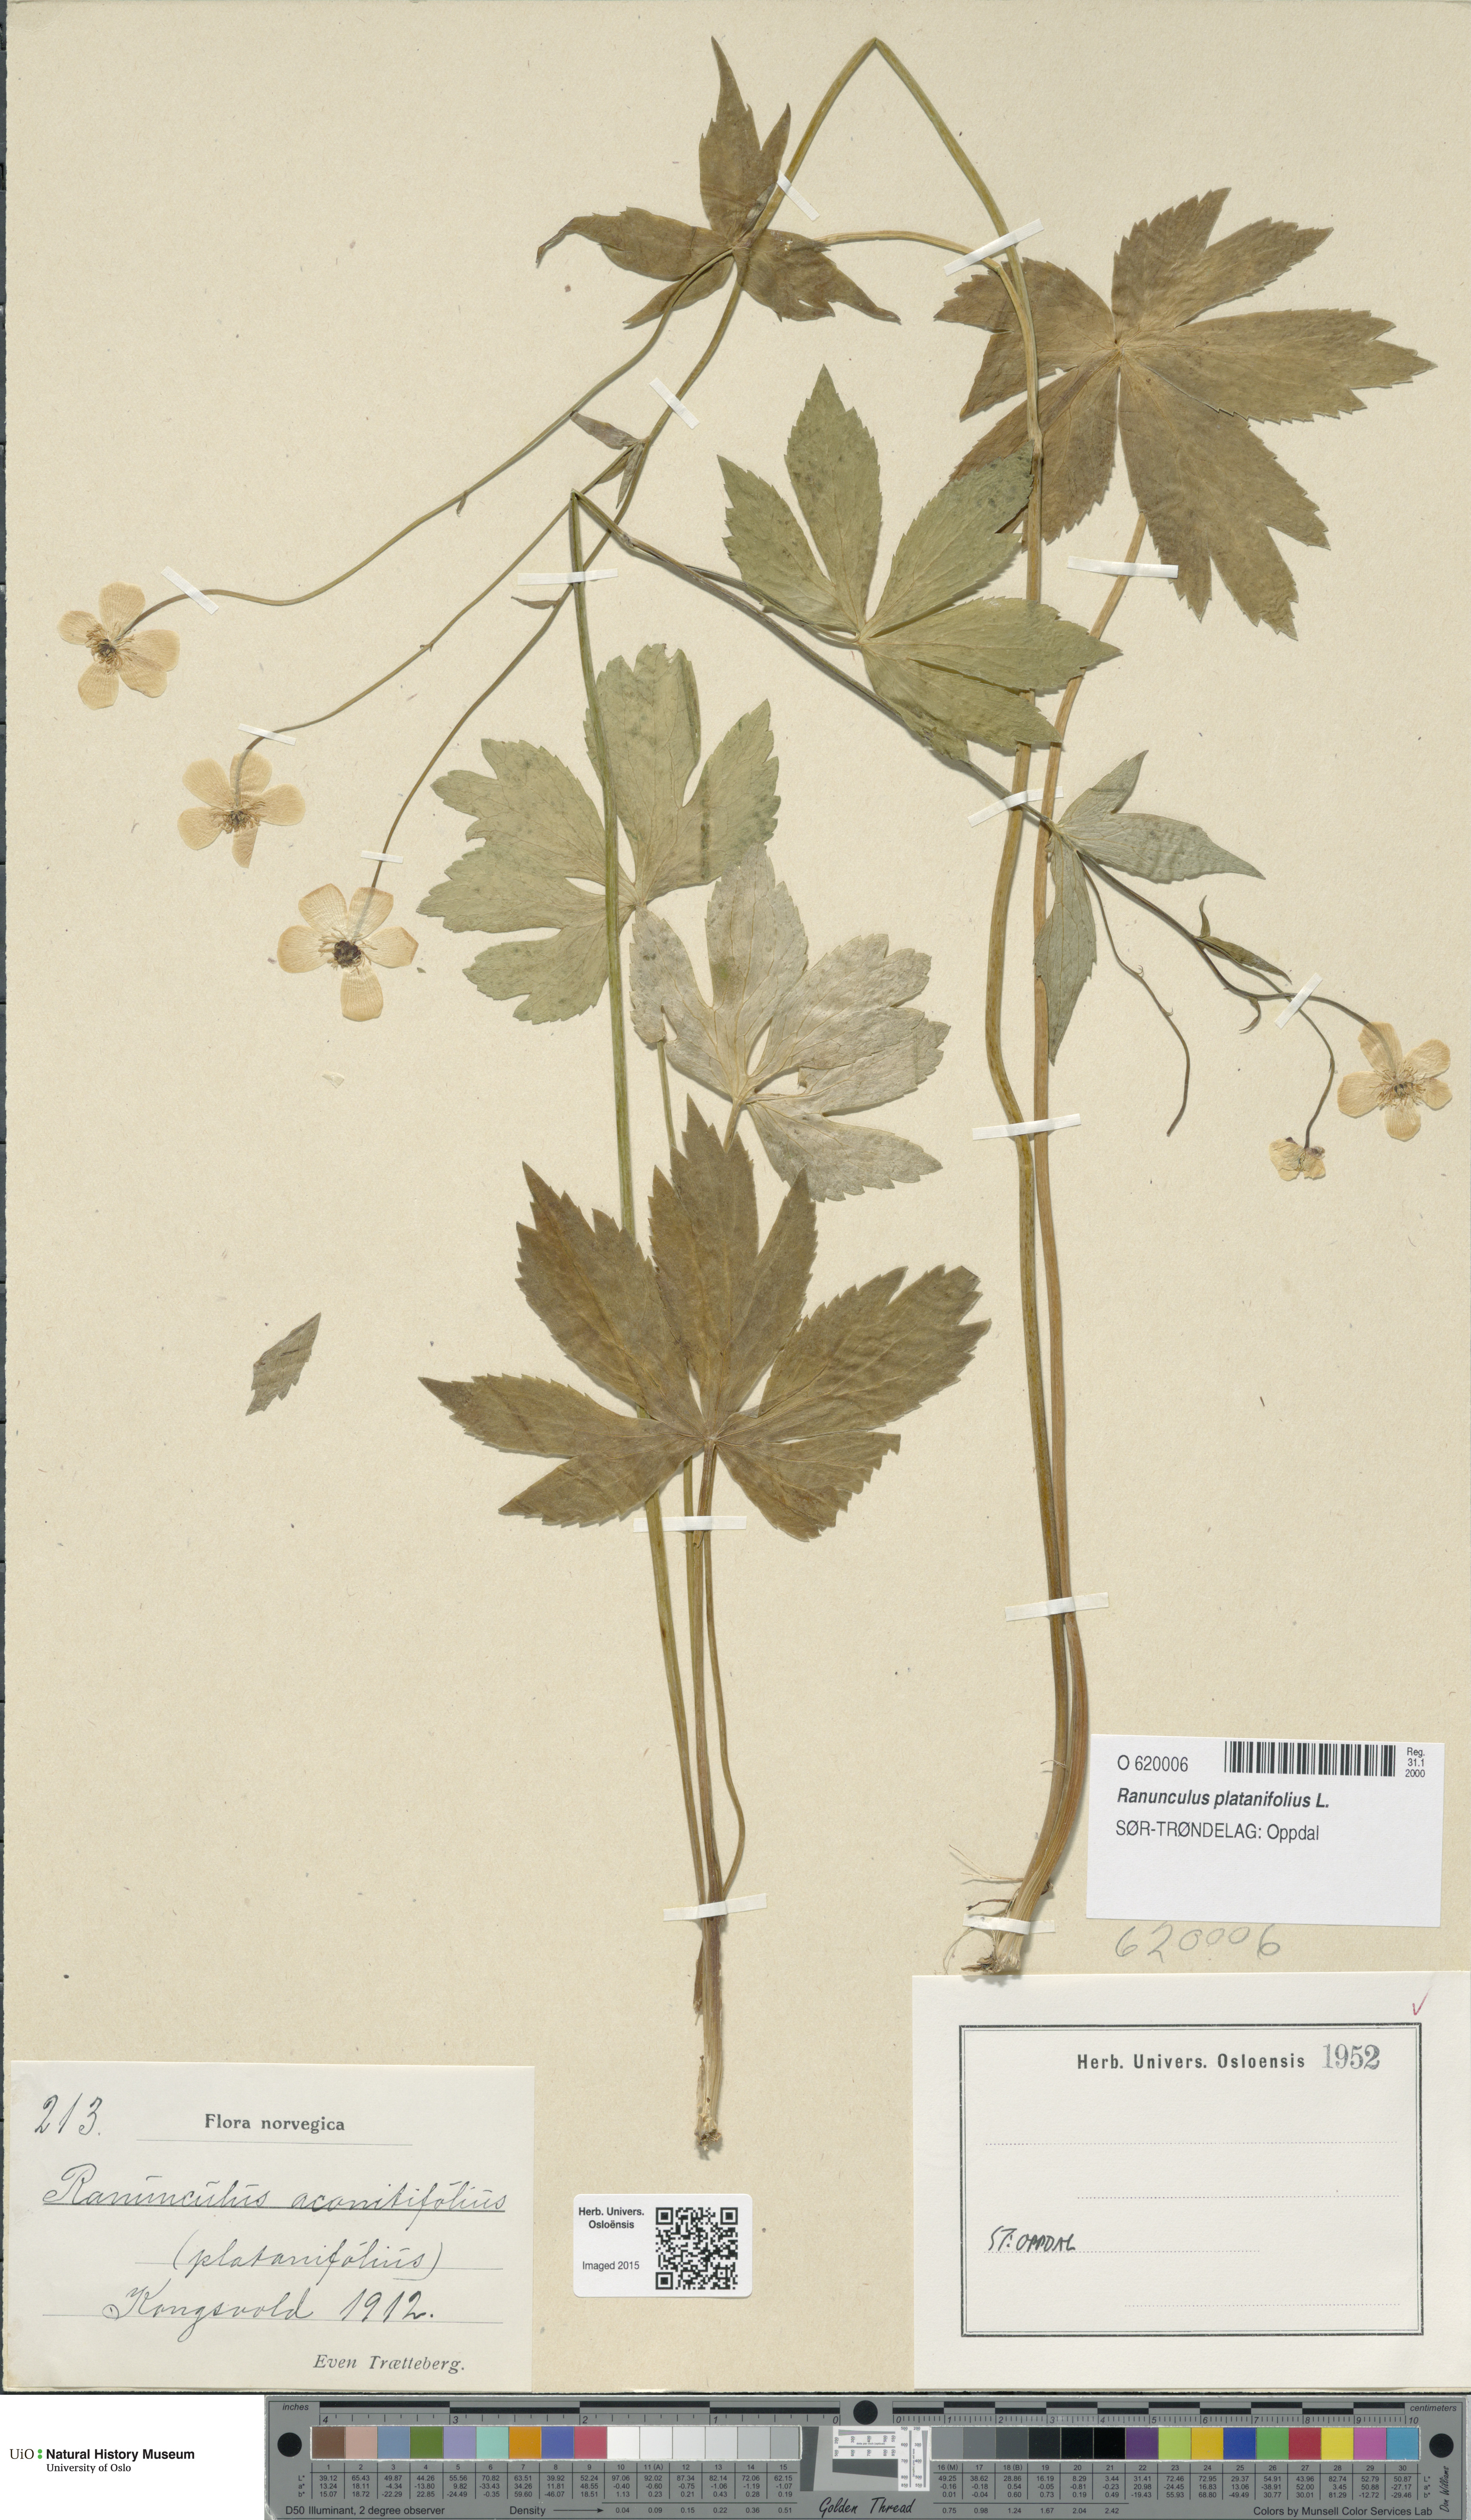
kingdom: Plantae
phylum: Tracheophyta
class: Magnoliopsida
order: Ranunculales
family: Ranunculaceae
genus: Ranunculus
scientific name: Ranunculus platanifolius
